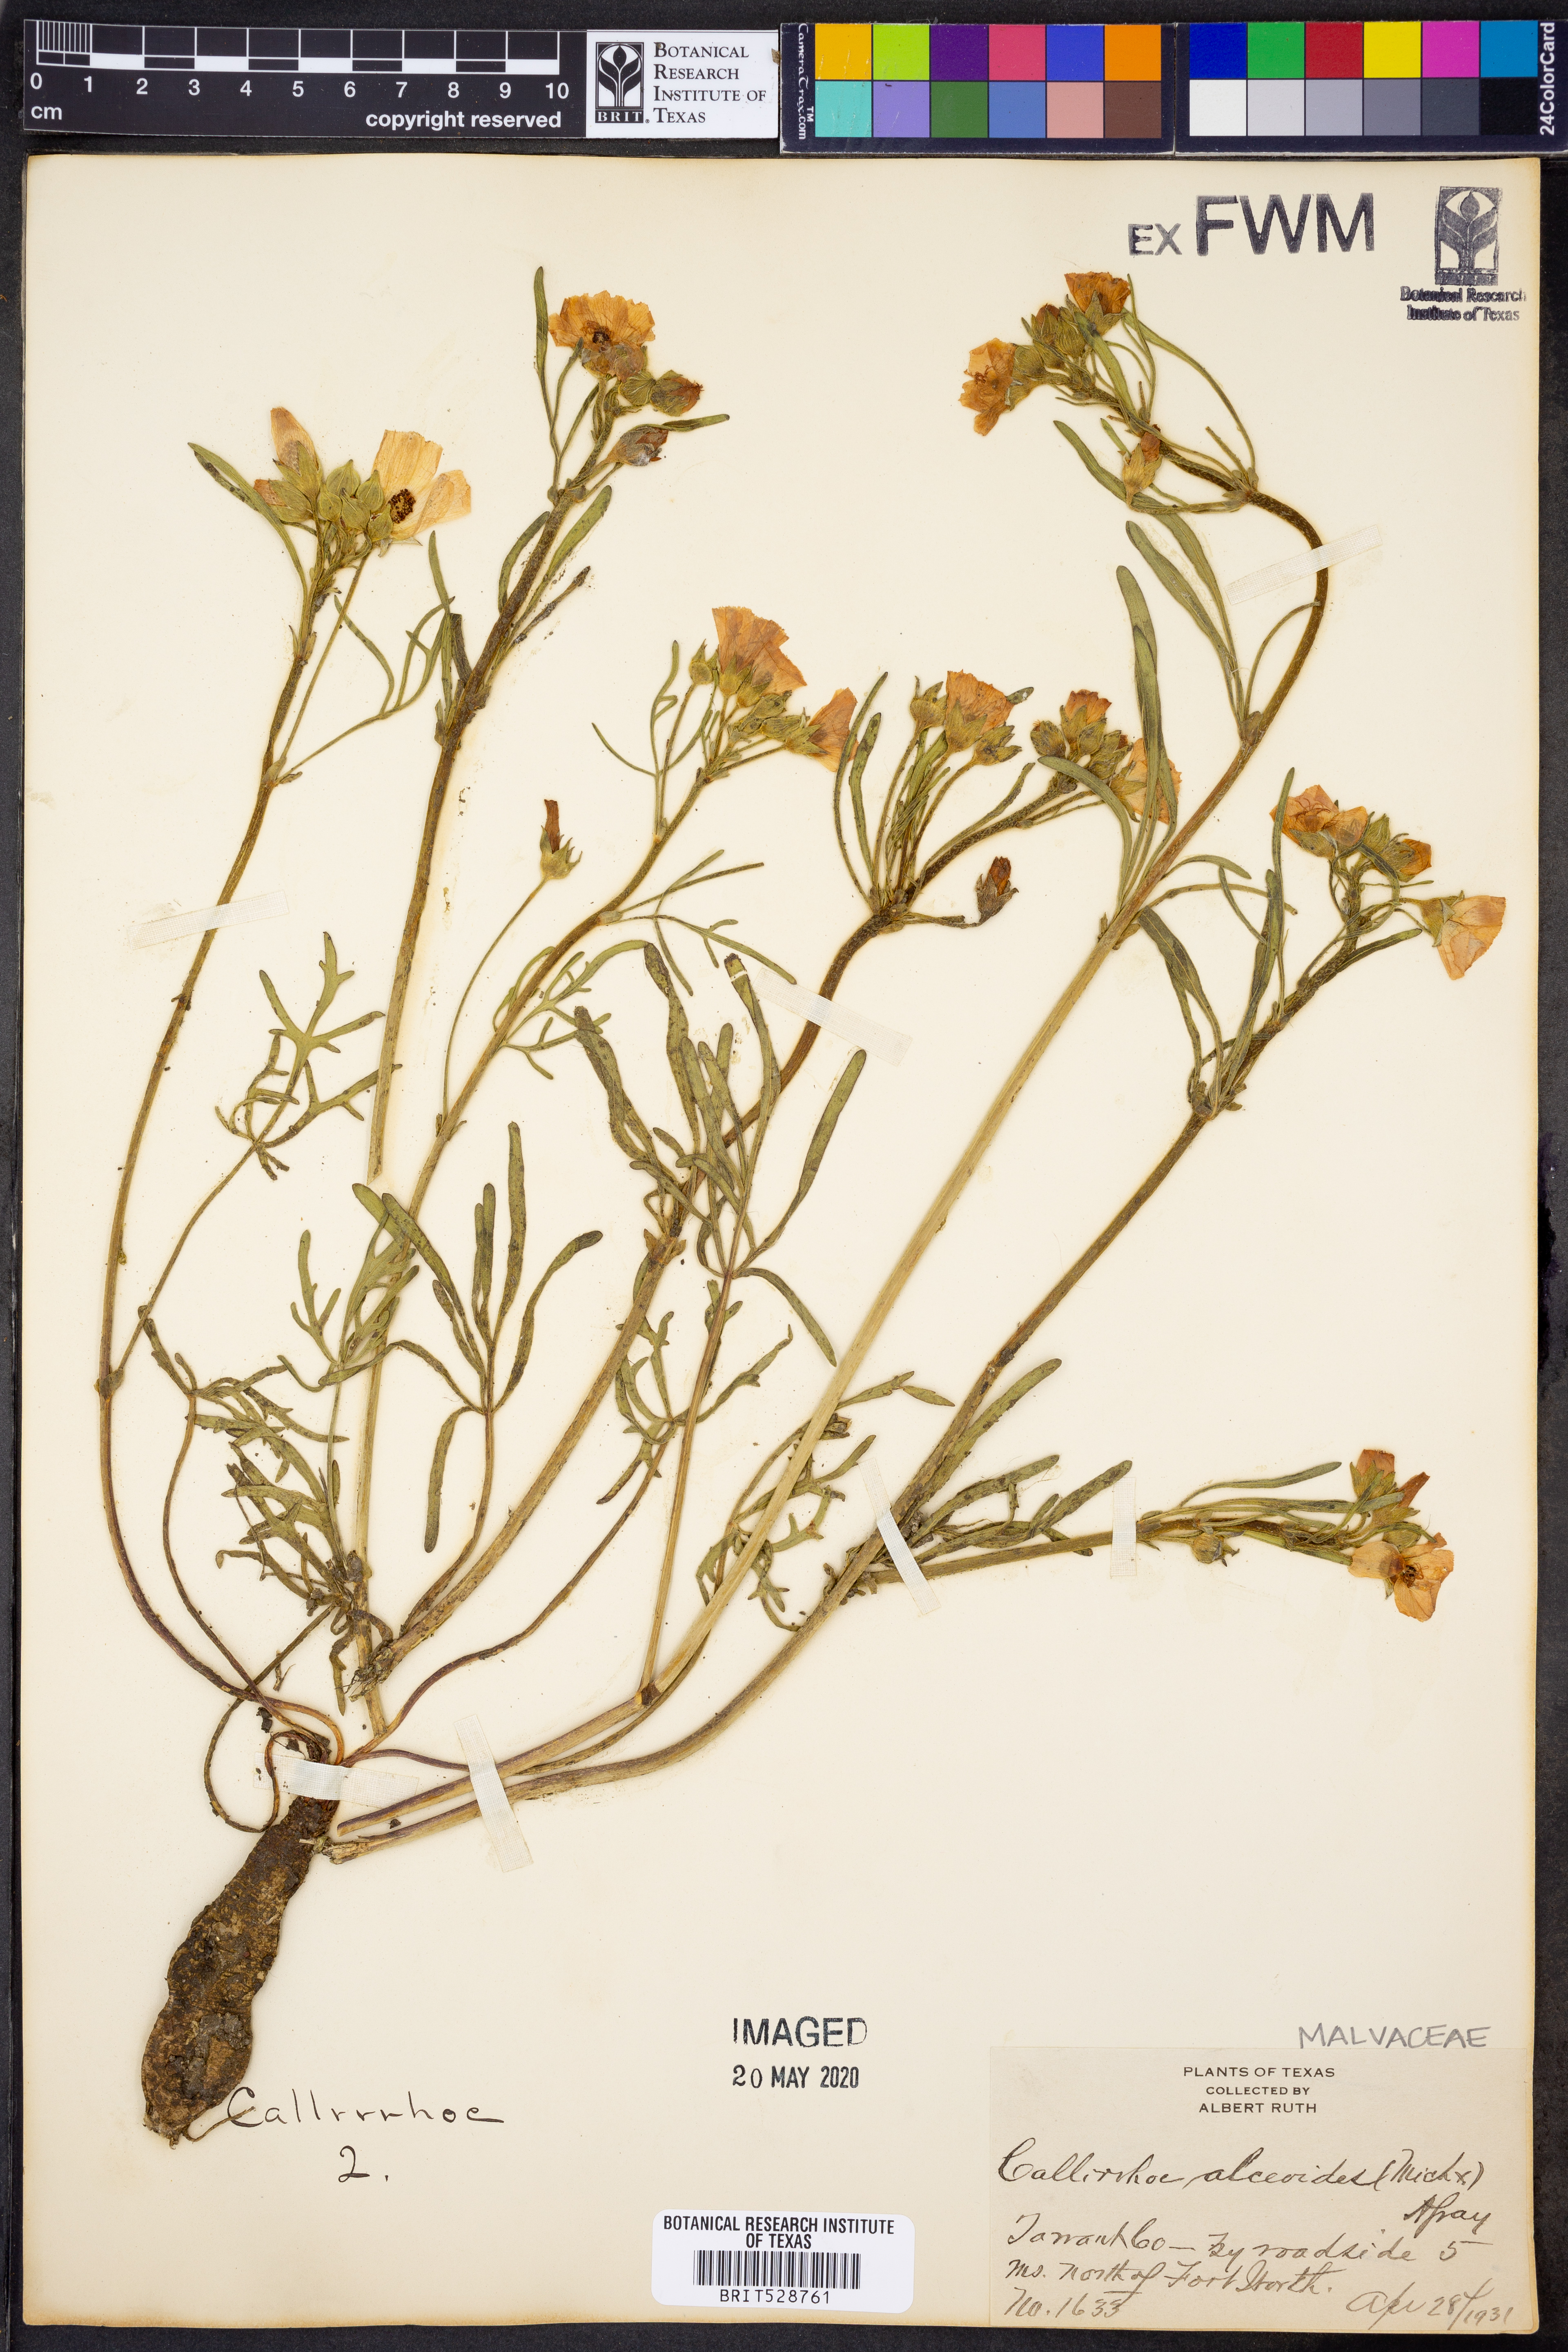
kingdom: Plantae
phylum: Tracheophyta
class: Magnoliopsida
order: Malvales
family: Malvaceae
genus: Callirhoe
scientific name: Callirhoe alcaeoides
